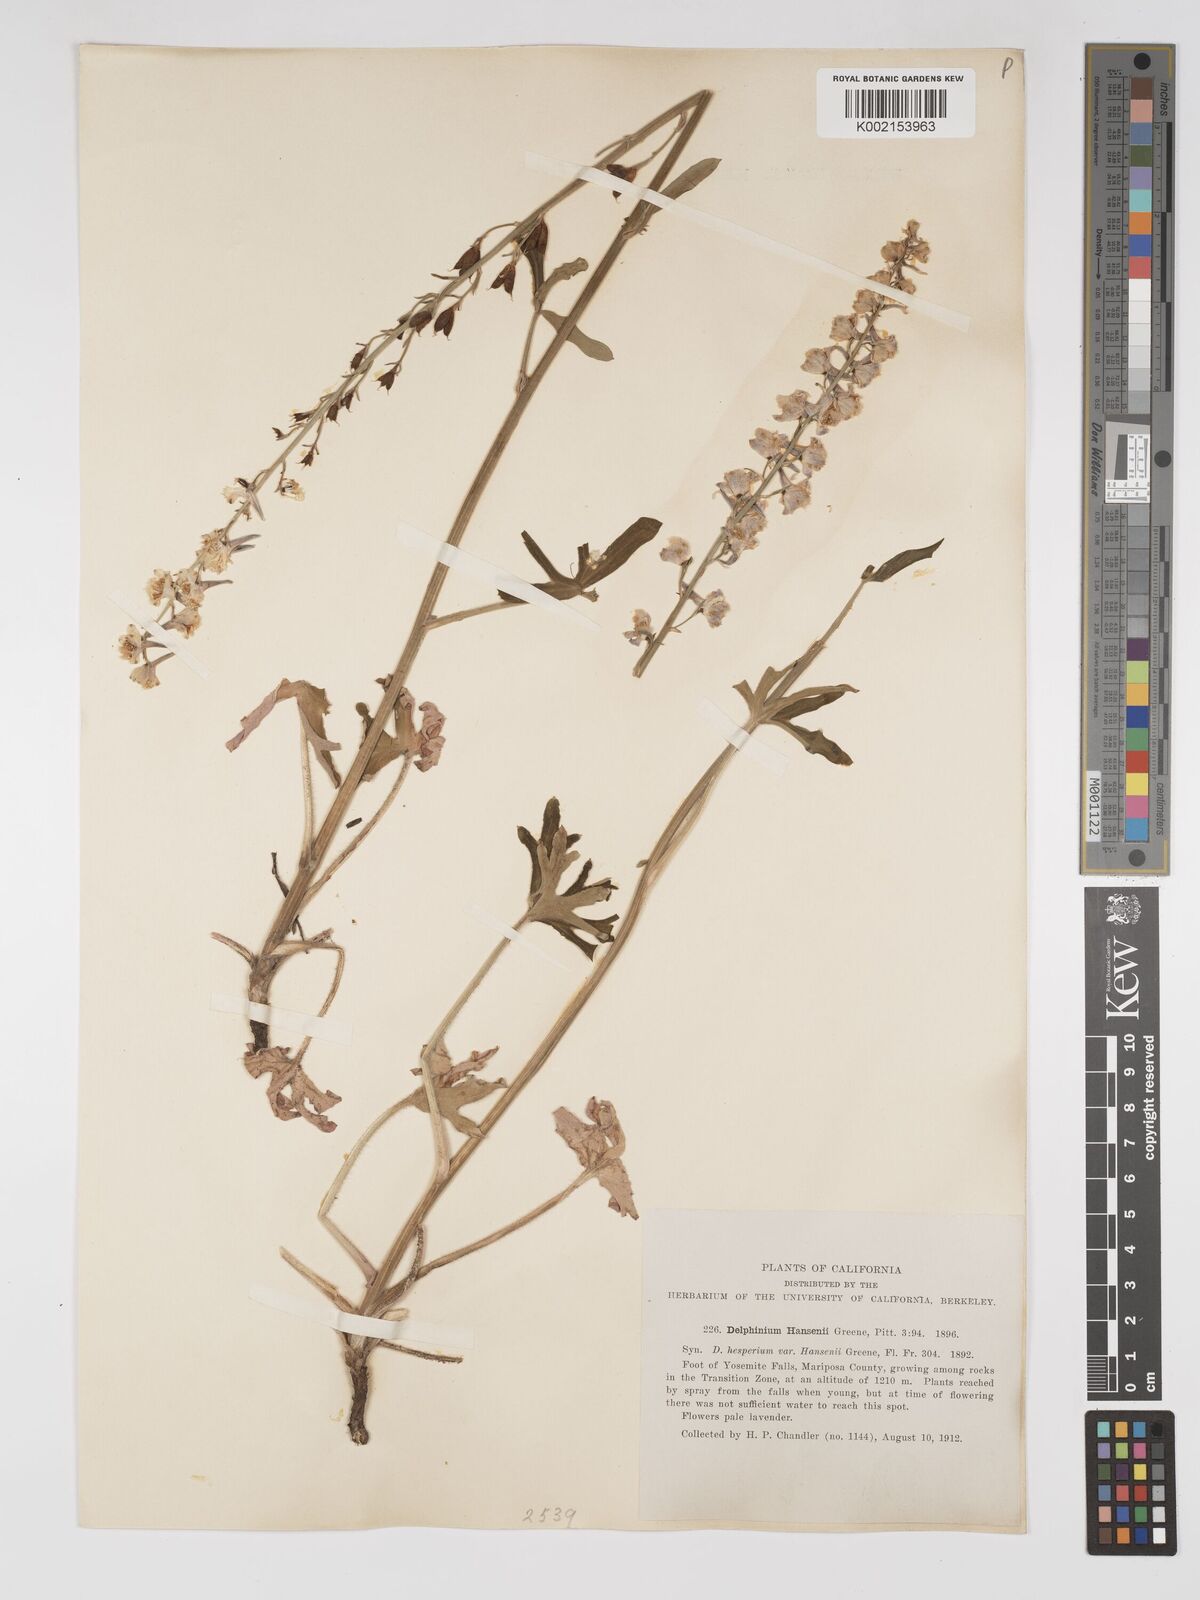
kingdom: Plantae
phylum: Tracheophyta
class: Magnoliopsida
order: Ranunculales
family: Ranunculaceae
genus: Delphinium
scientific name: Delphinium hansenii
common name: Hansen's larkspur
